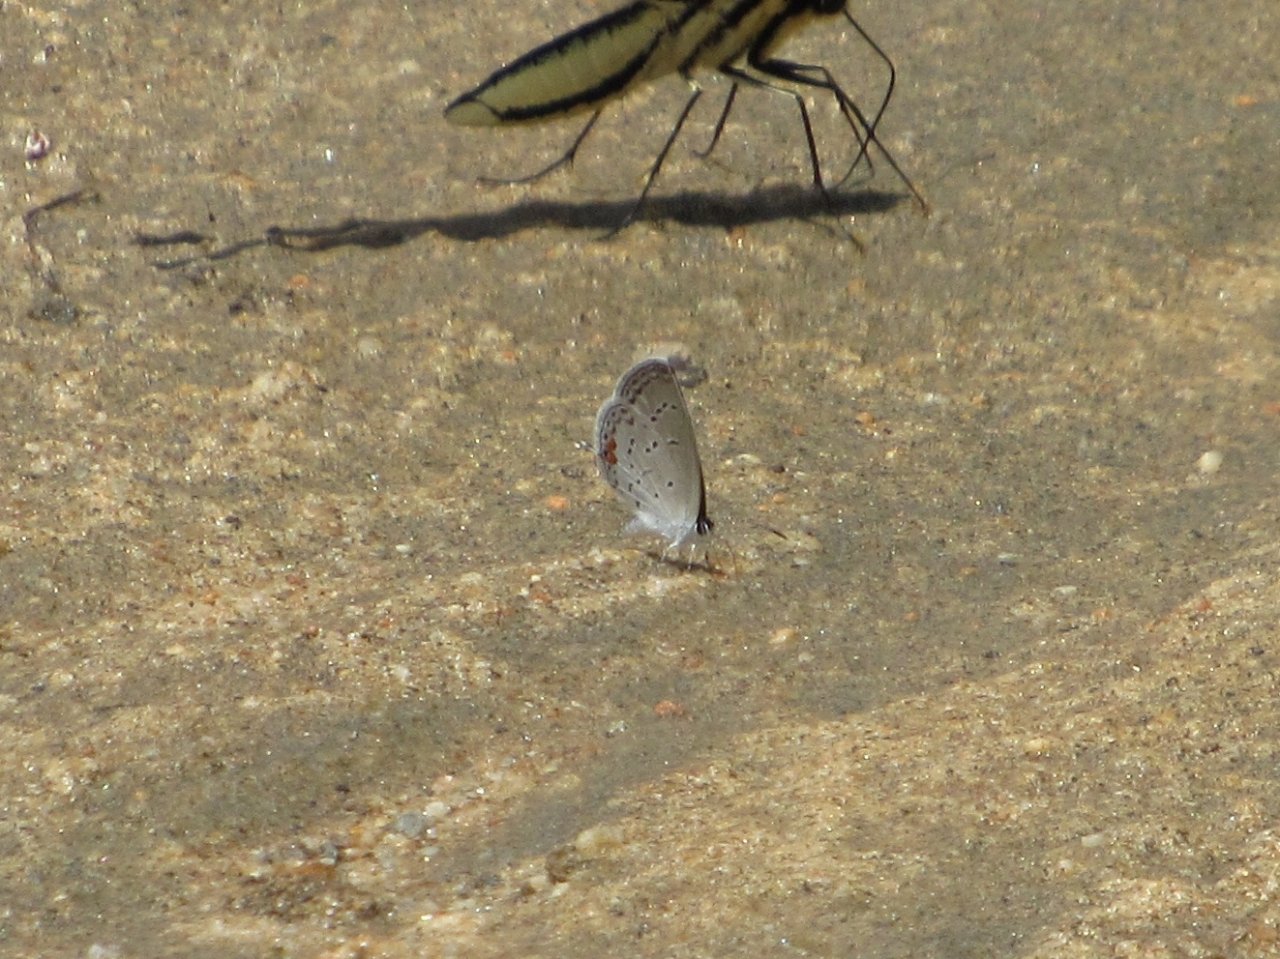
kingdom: Animalia
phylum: Arthropoda
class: Insecta
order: Lepidoptera
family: Lycaenidae
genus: Elkalyce
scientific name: Elkalyce comyntas
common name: Eastern Tailed-Blue
